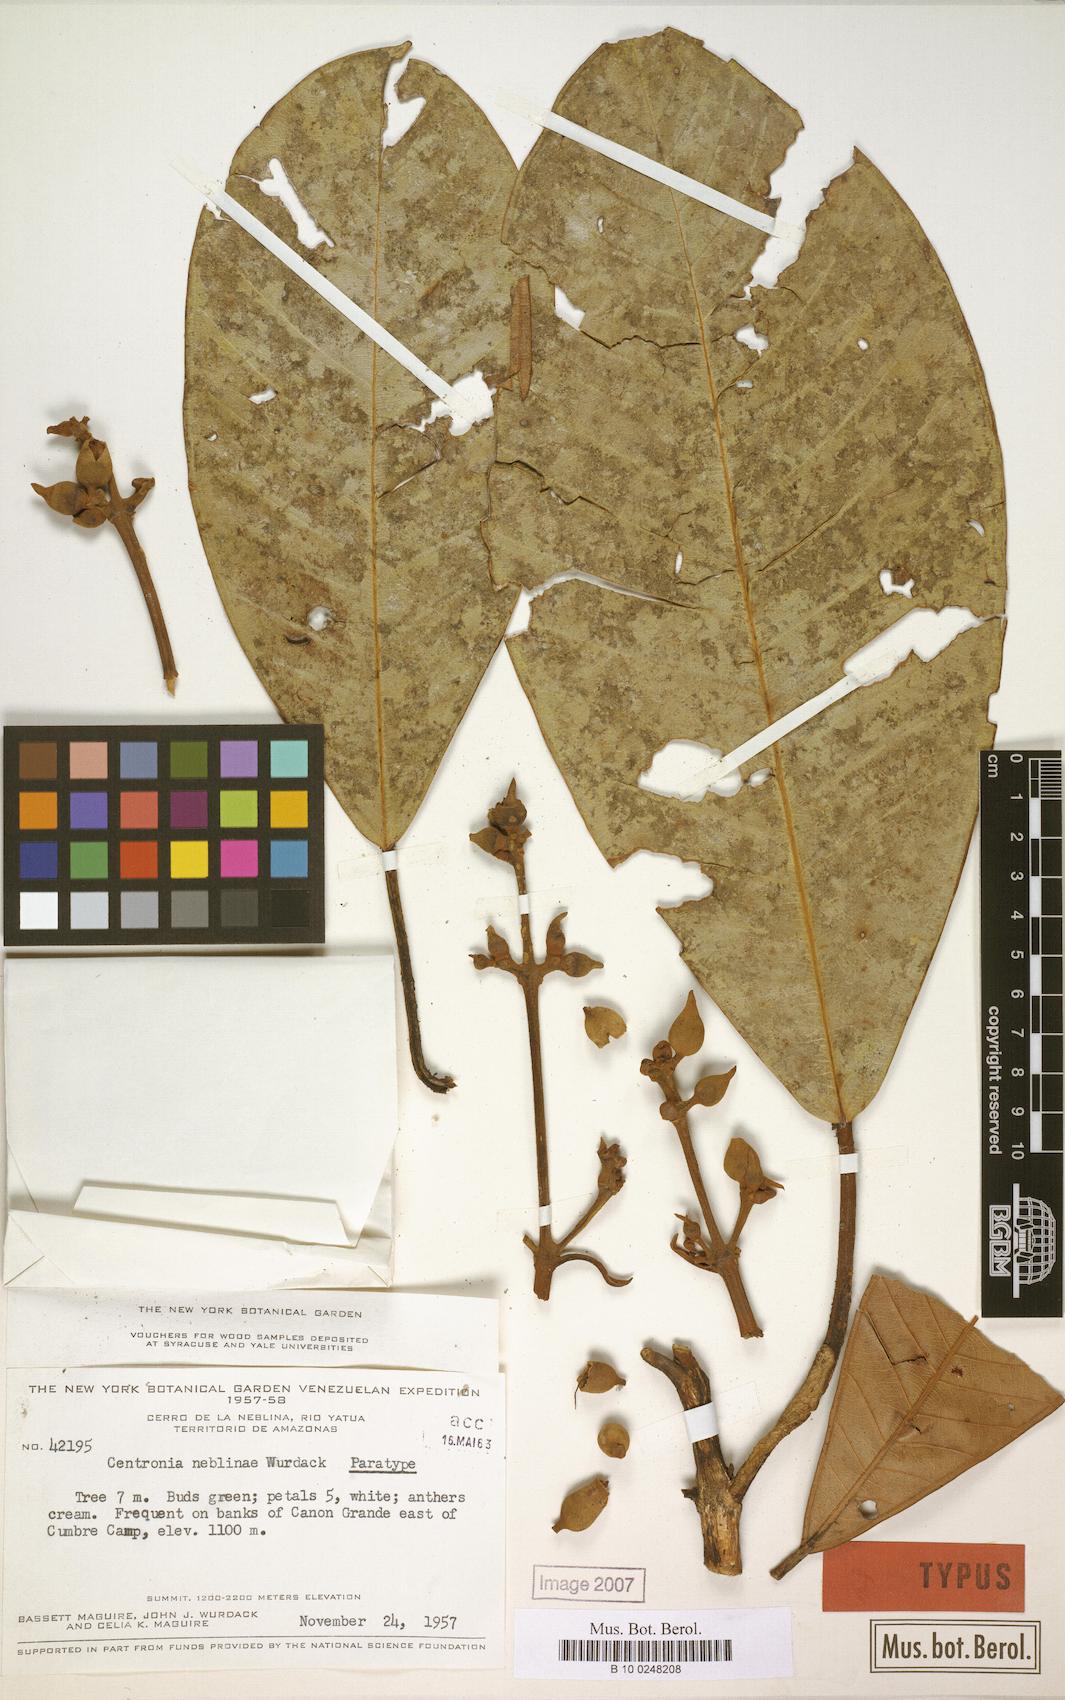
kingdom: Plantae
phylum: Tracheophyta
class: Magnoliopsida
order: Myrtales
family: Melastomataceae
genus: Centronia
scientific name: Centronia neblinae
